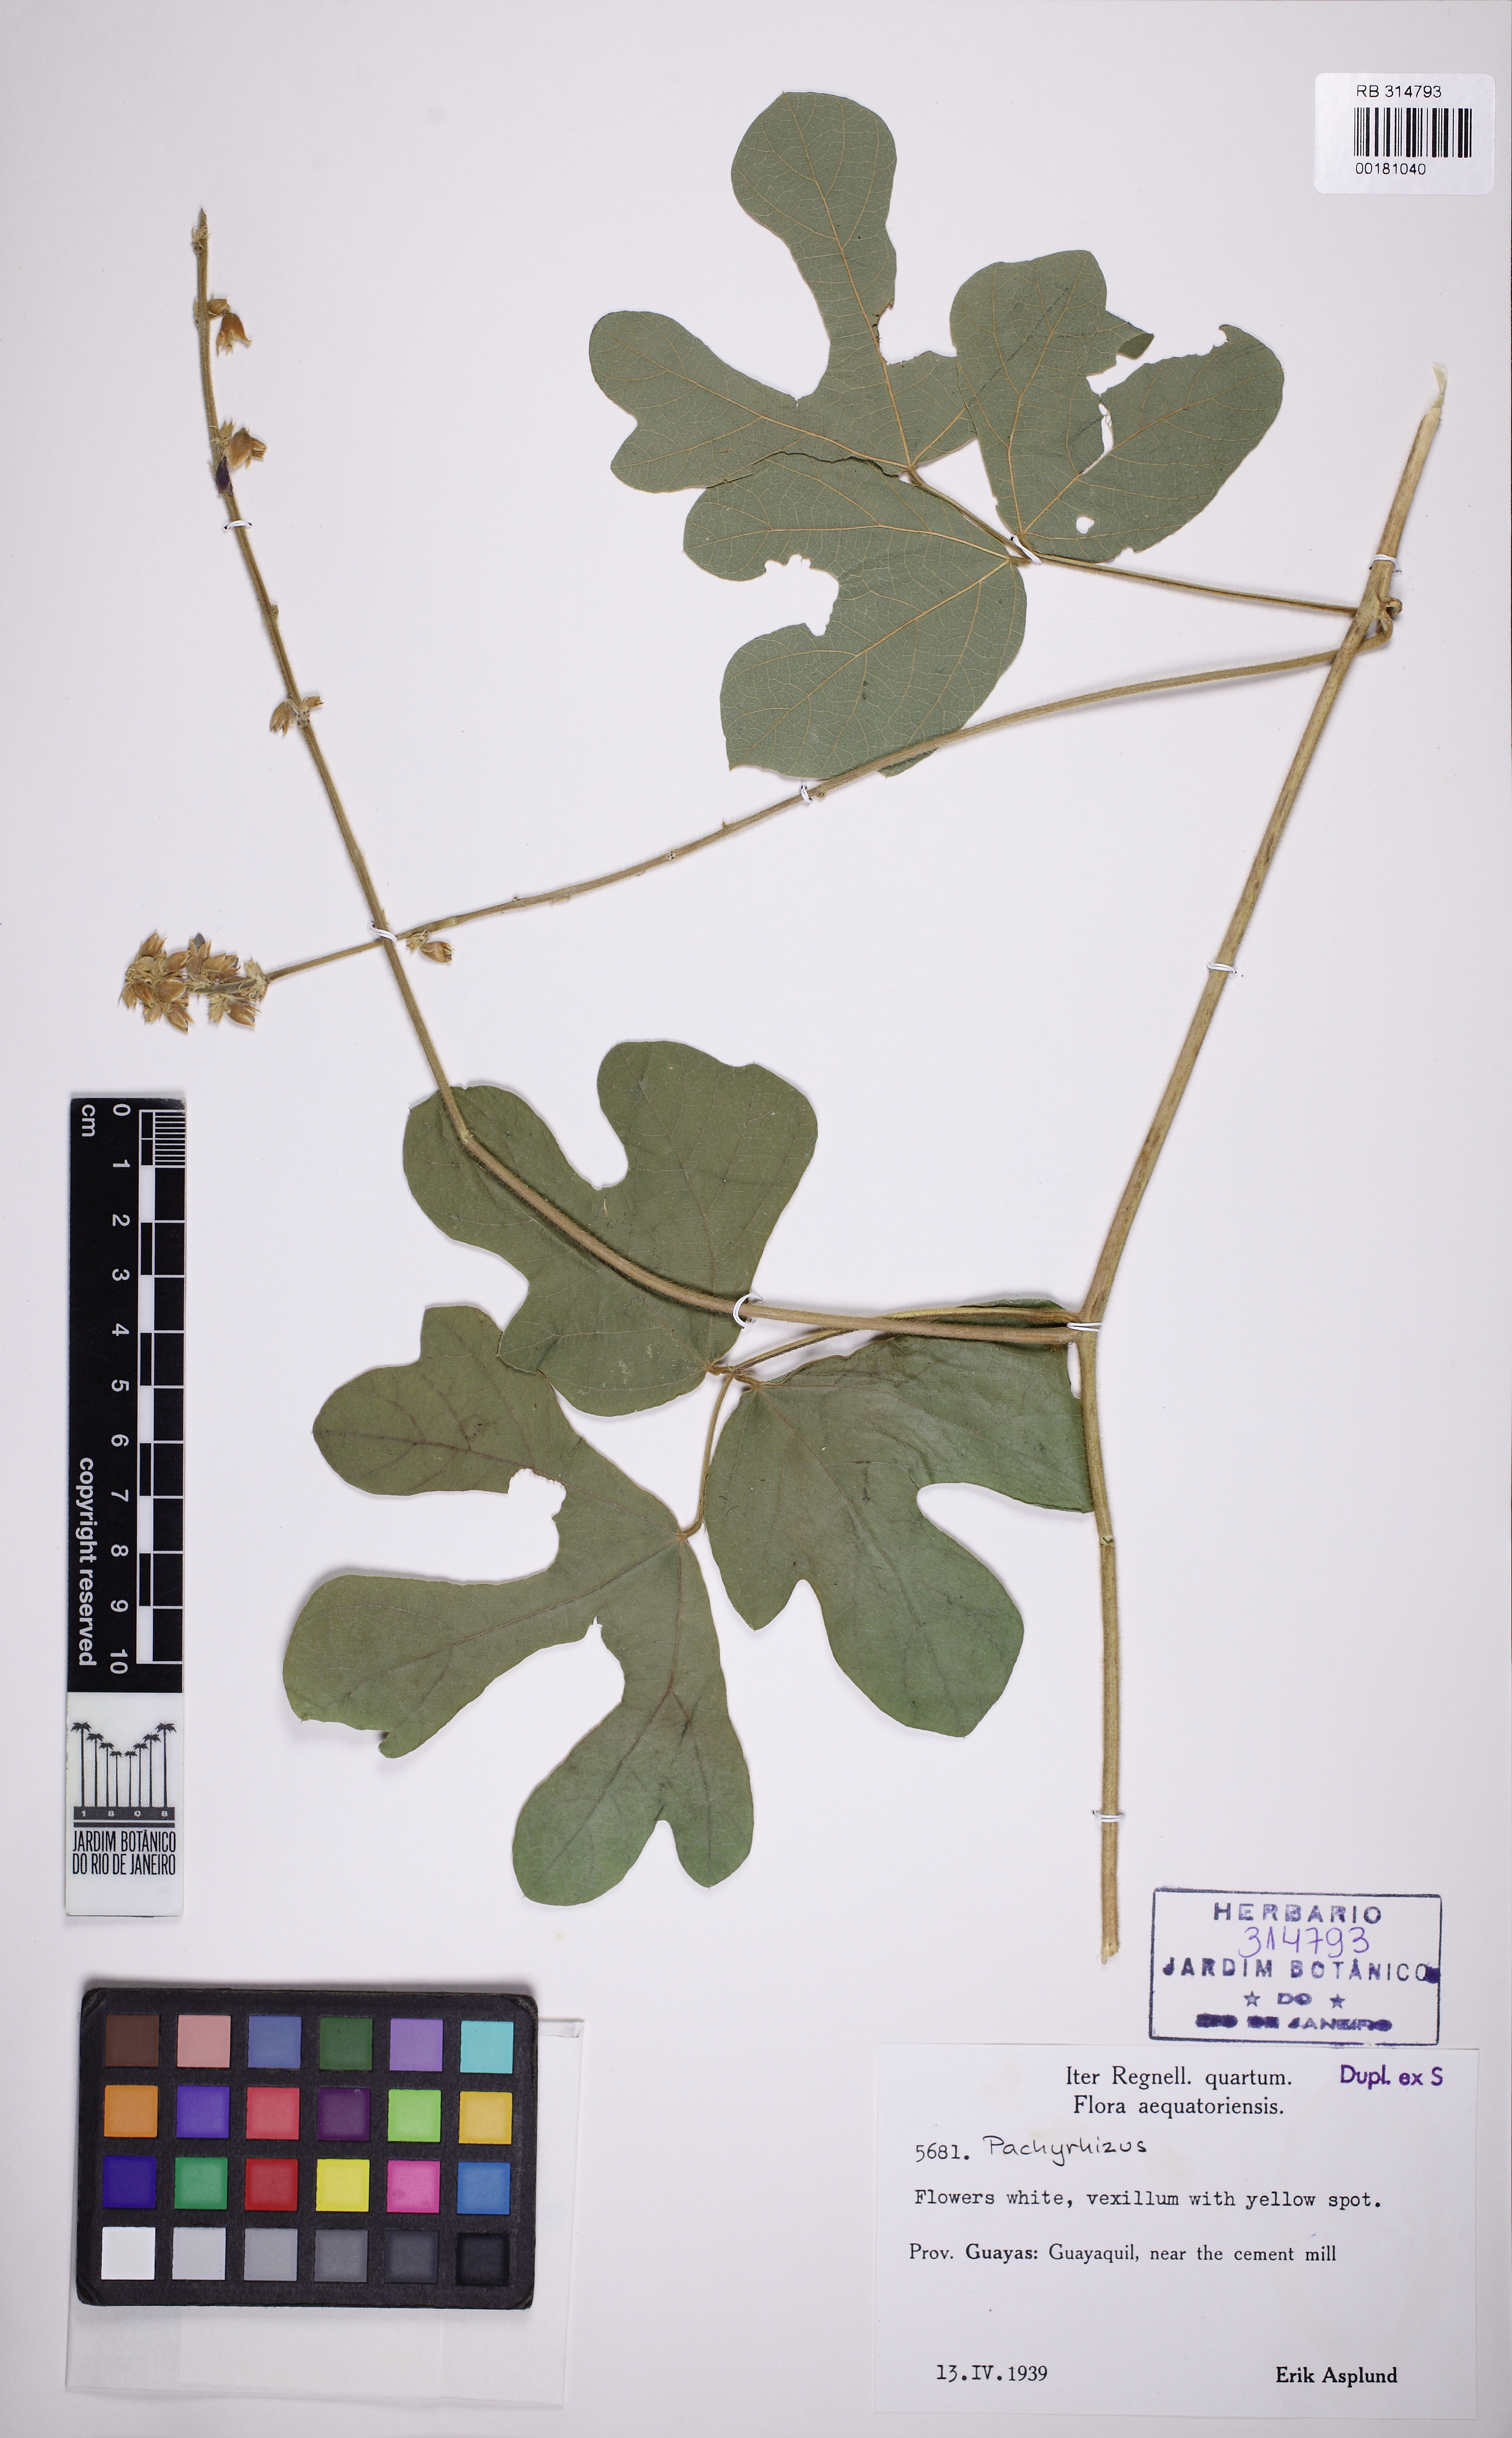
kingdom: Plantae
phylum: Tracheophyta
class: Magnoliopsida
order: Fabales
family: Fabaceae
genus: Pachyrhizus
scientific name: Pachyrhizus
